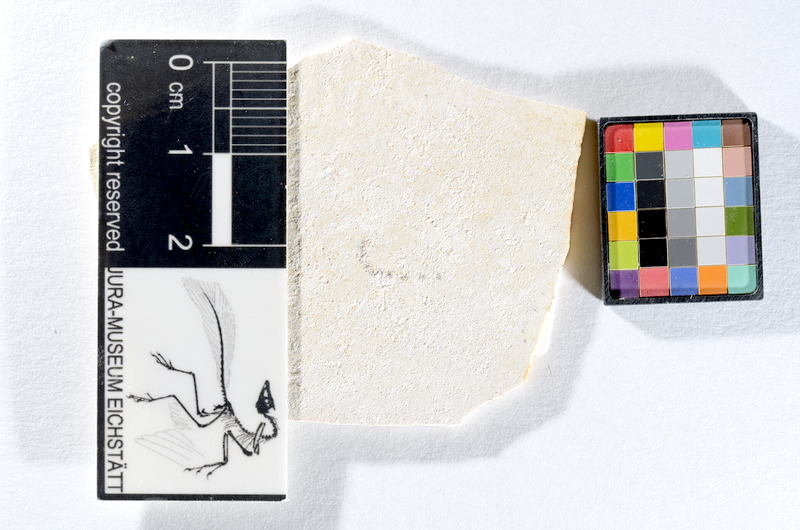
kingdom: Animalia
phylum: Chordata
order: Salmoniformes
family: Orthogonikleithridae
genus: Orthogonikleithrus
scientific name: Orthogonikleithrus hoelli
